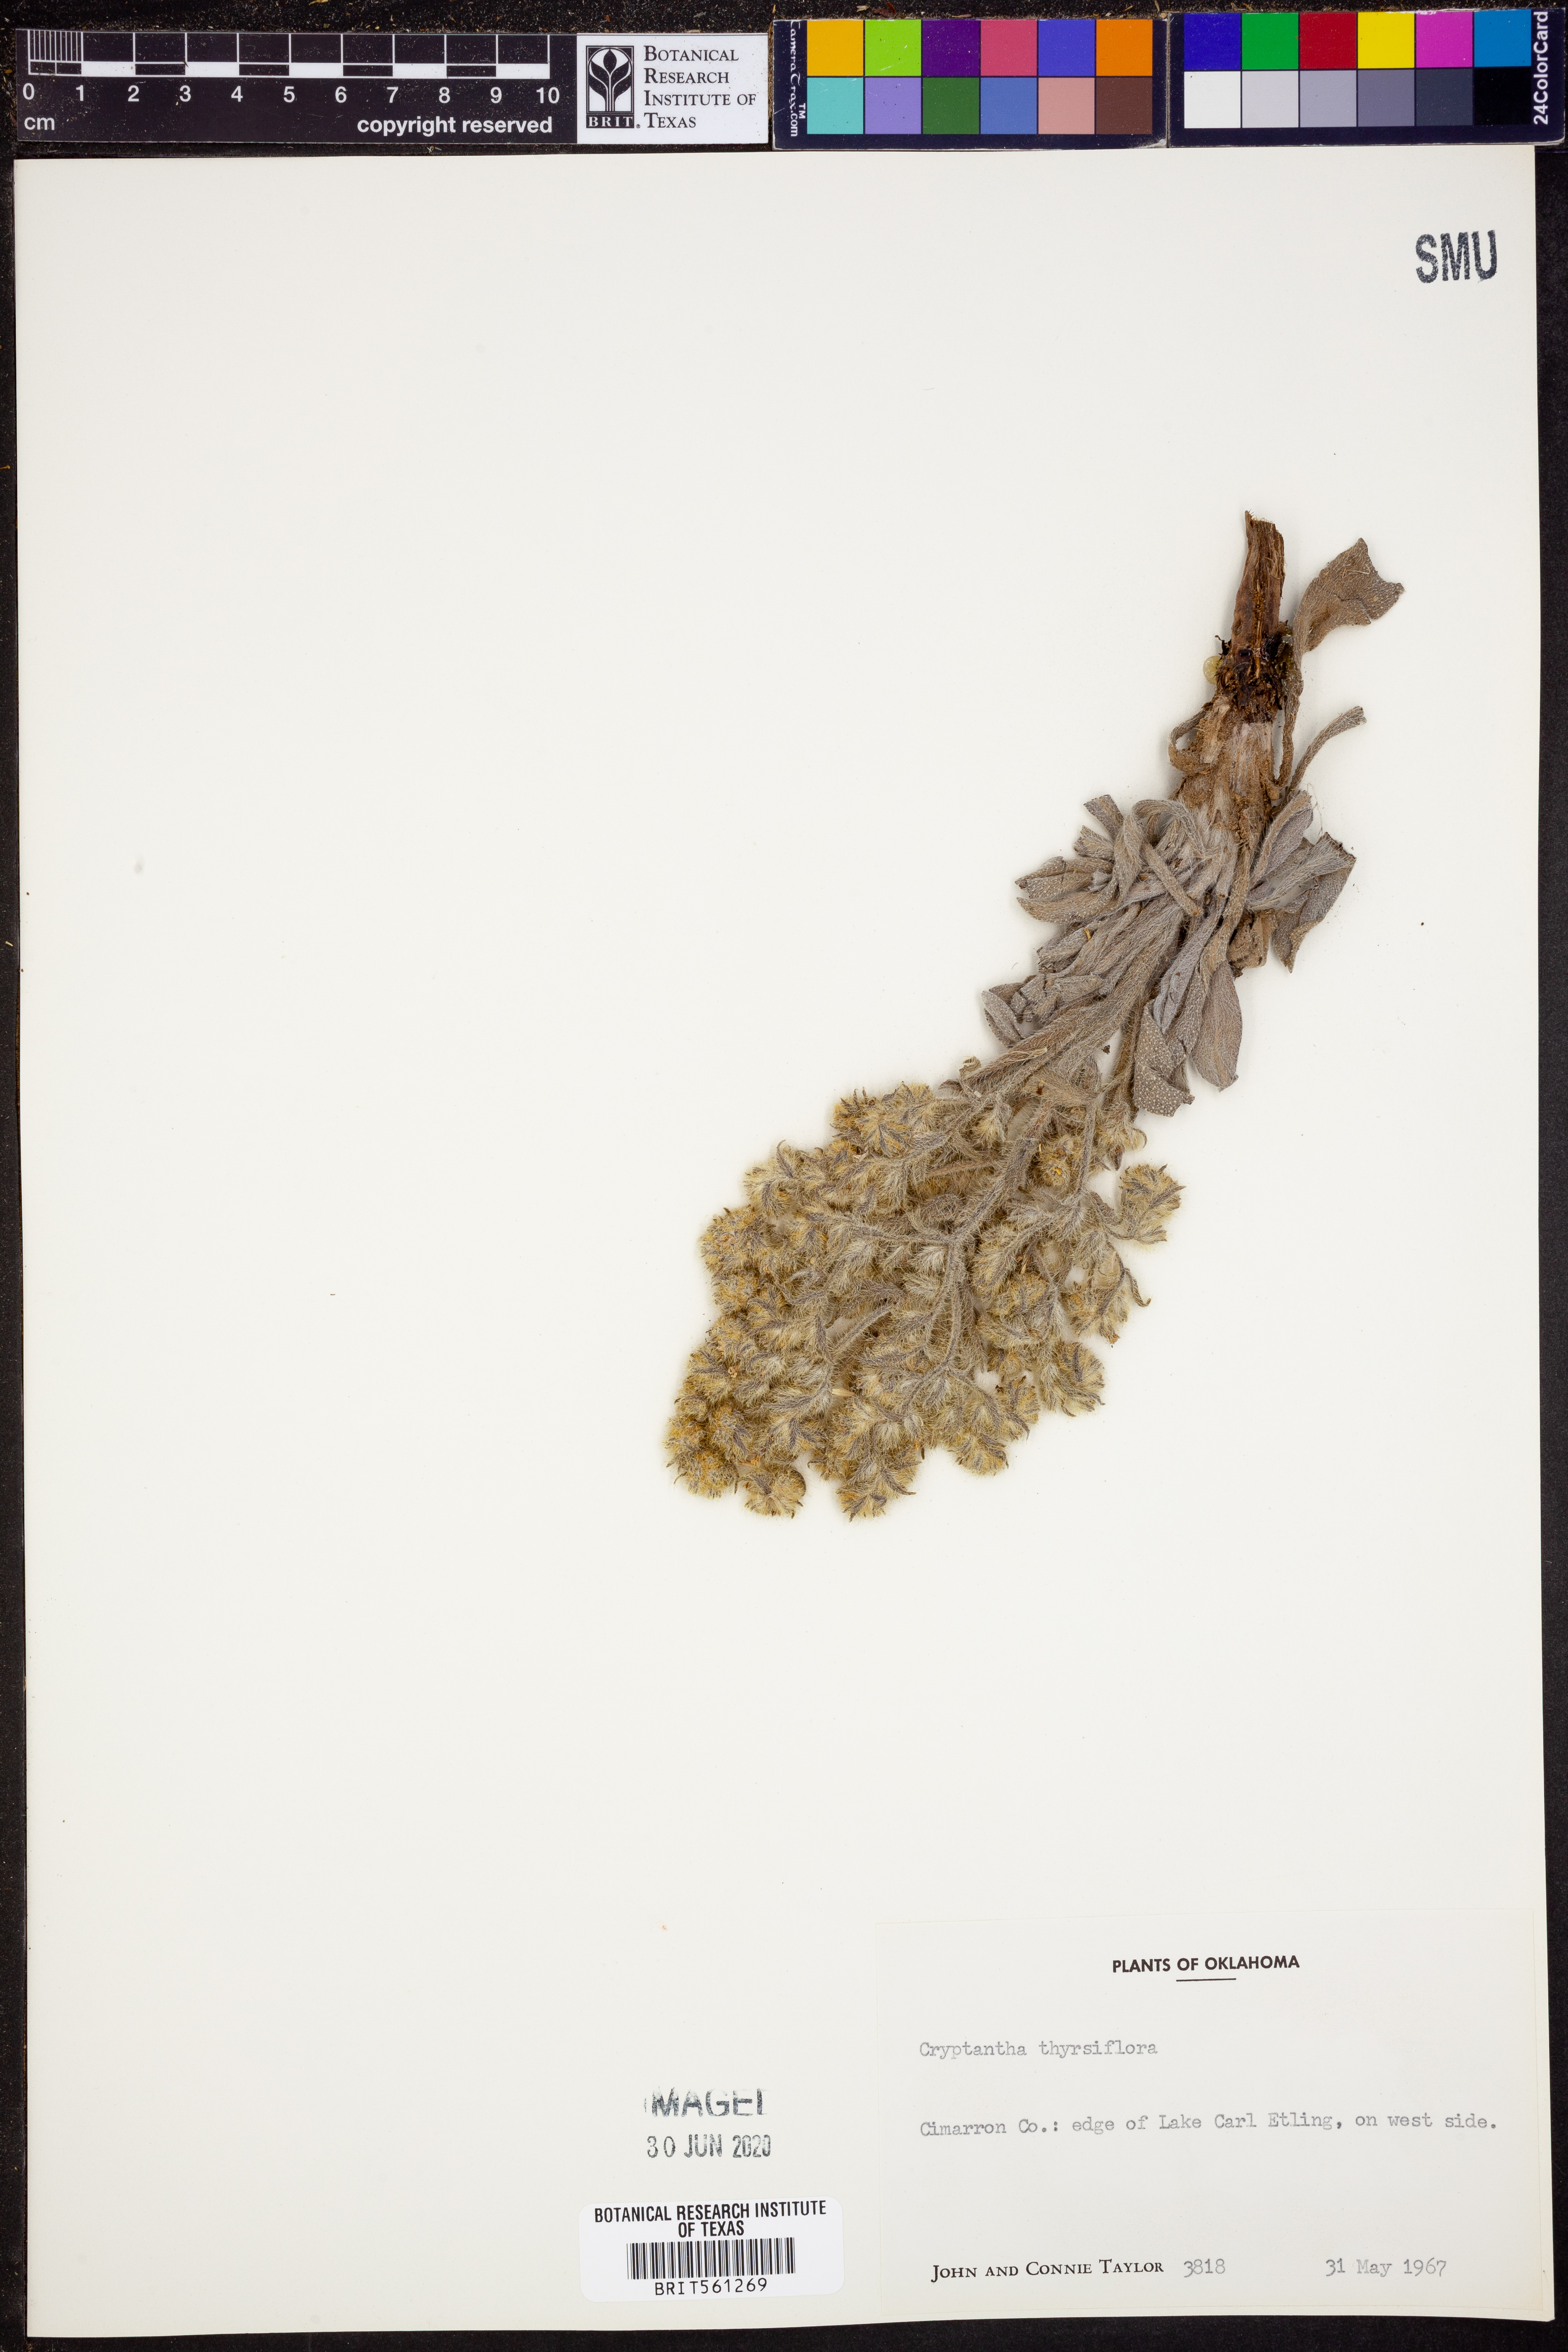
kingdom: Plantae
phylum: Tracheophyta
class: Magnoliopsida
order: Boraginales
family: Boraginaceae
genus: Oreocarya
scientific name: Oreocarya thyrsiflora
